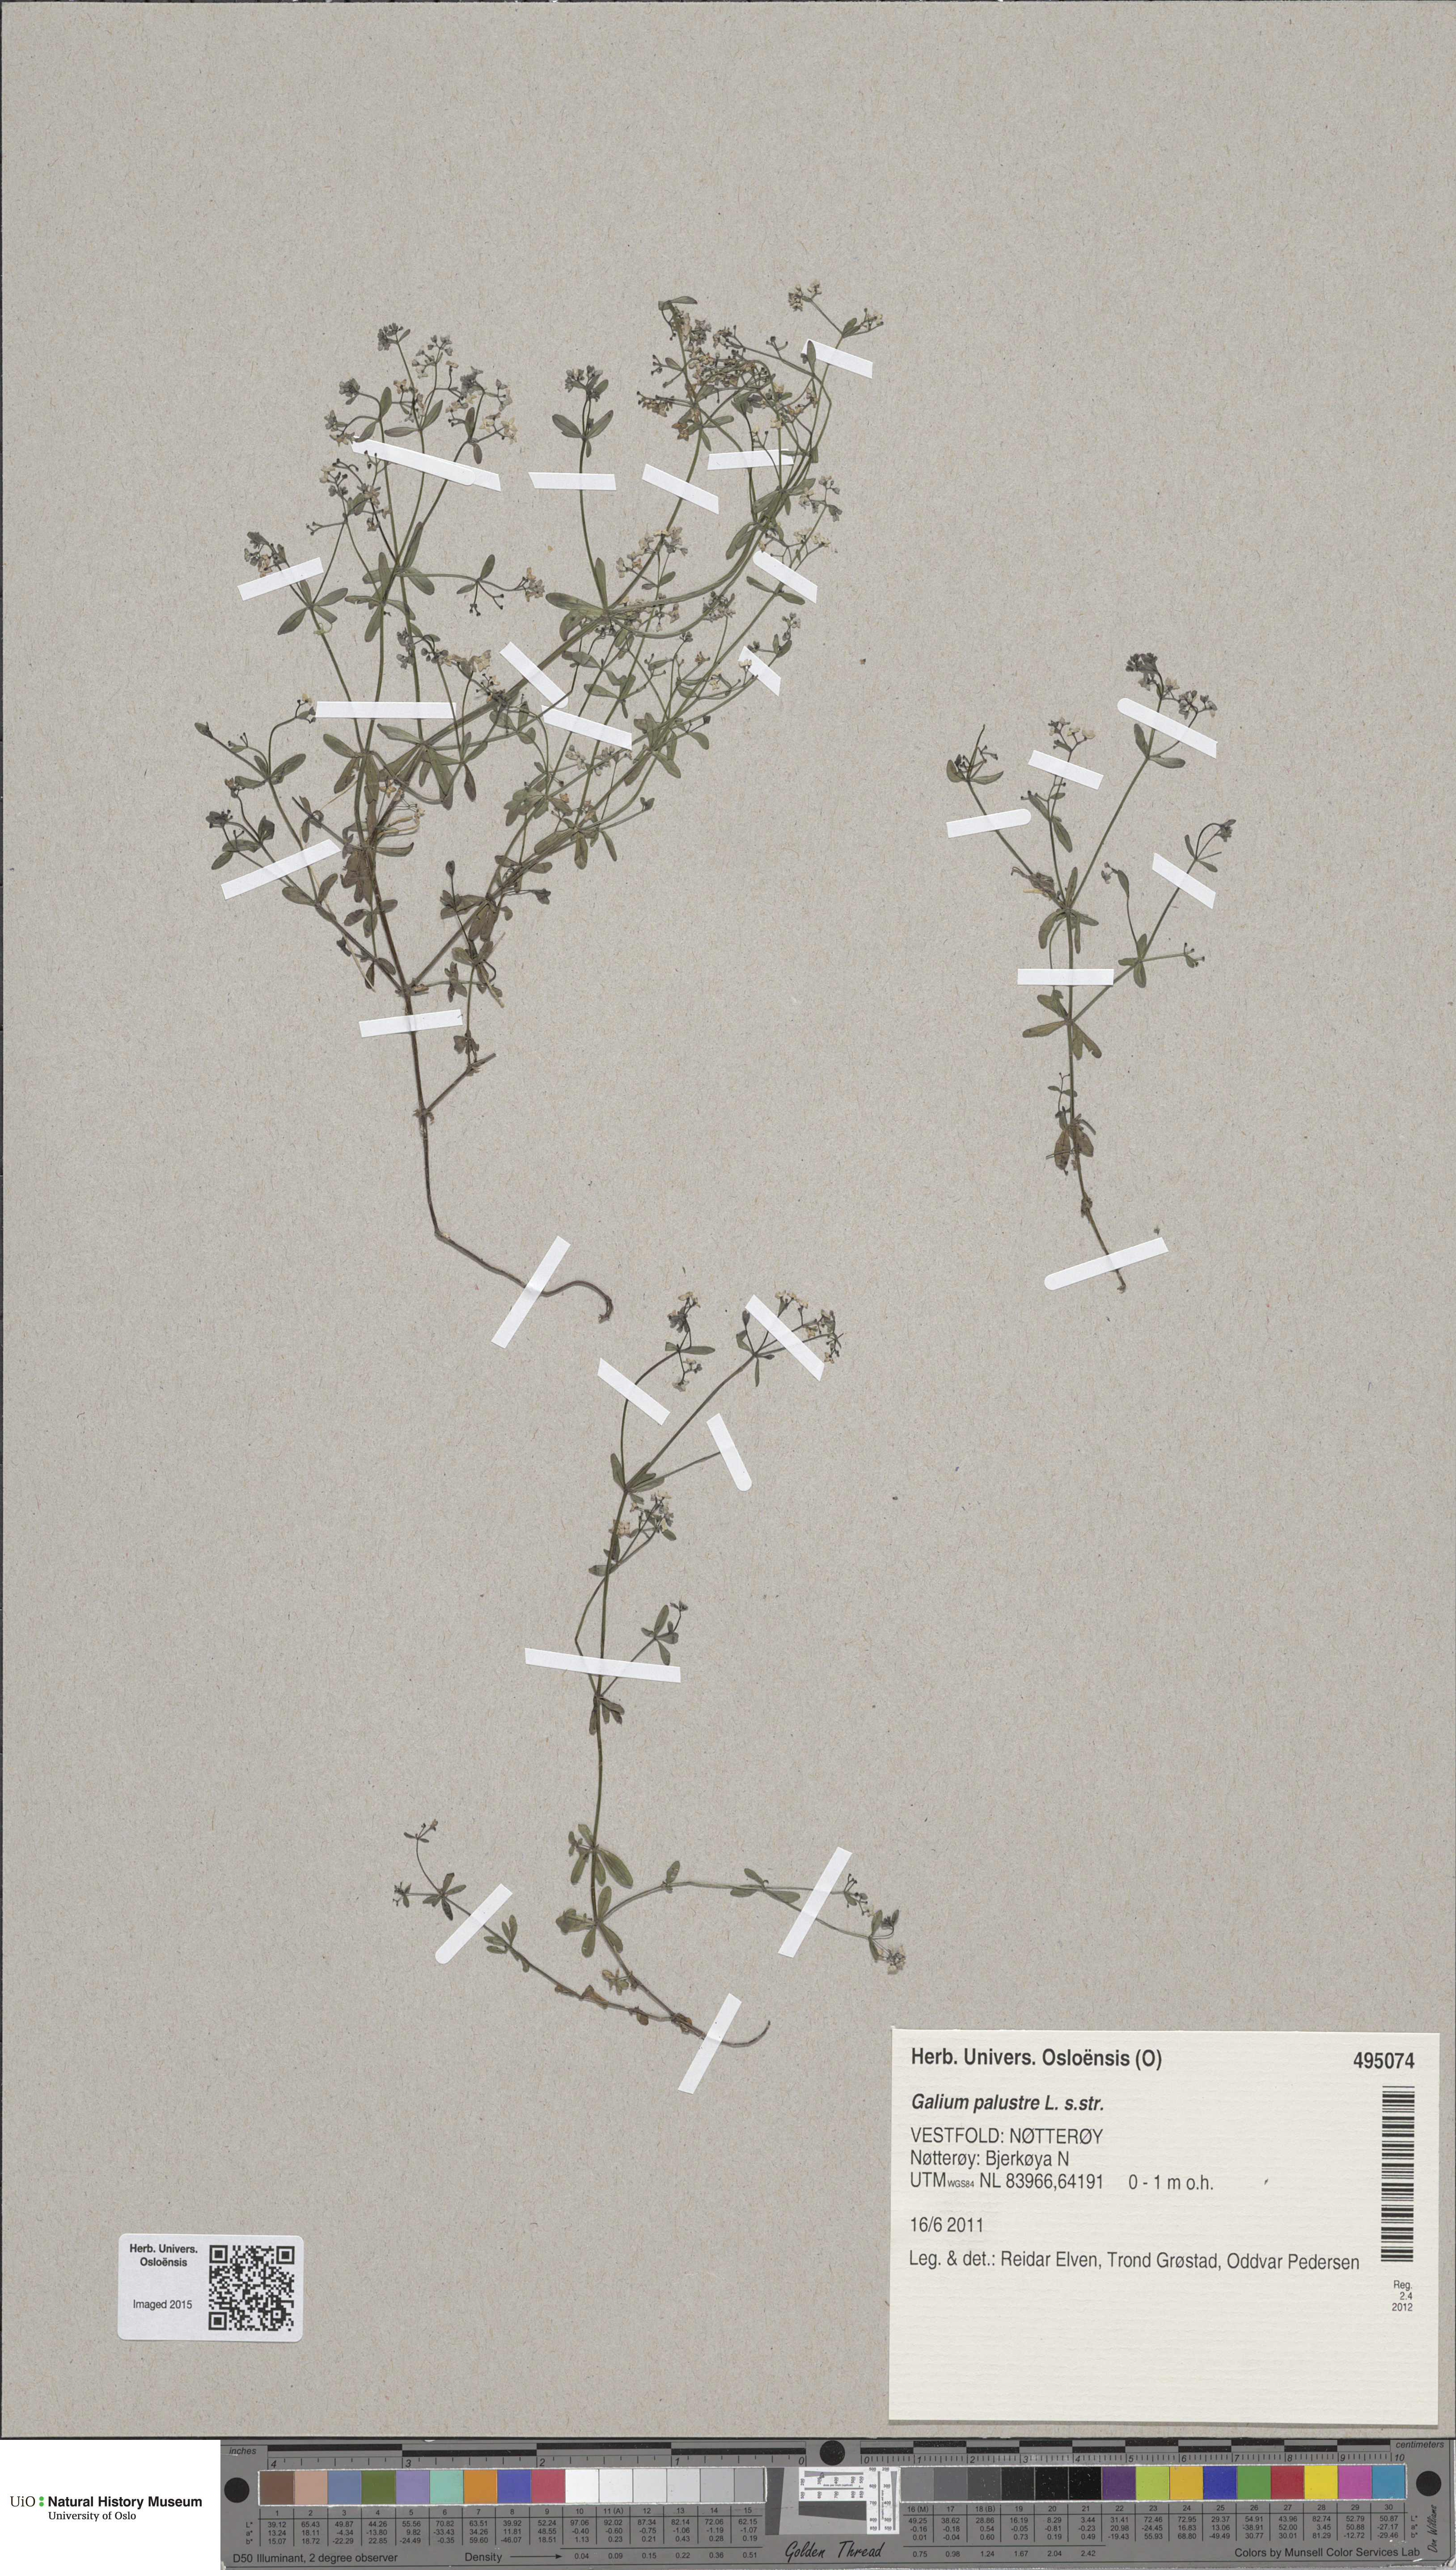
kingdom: Plantae
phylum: Tracheophyta
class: Magnoliopsida
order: Gentianales
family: Rubiaceae
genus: Galium
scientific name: Galium palustre
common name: Common marsh-bedstraw
